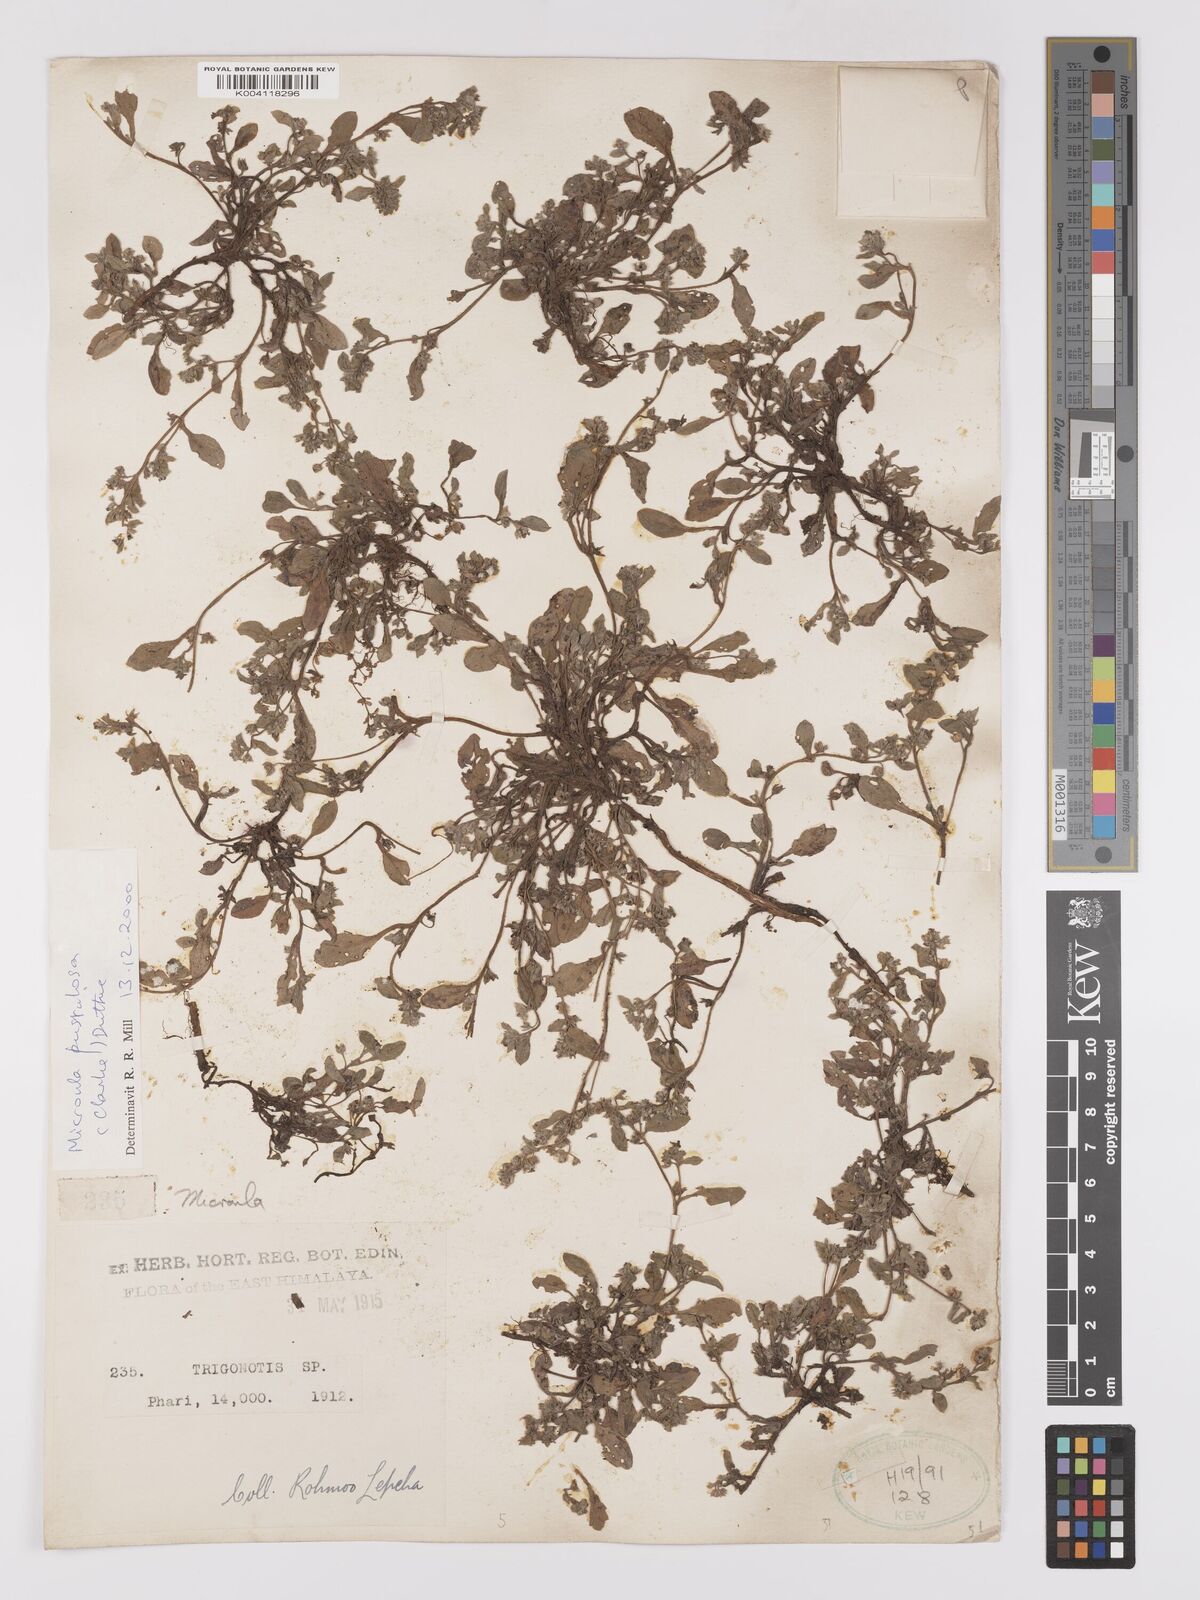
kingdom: Plantae
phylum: Tracheophyta
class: Magnoliopsida
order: Boraginales
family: Boraginaceae
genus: Microula
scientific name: Microula pustulosa
